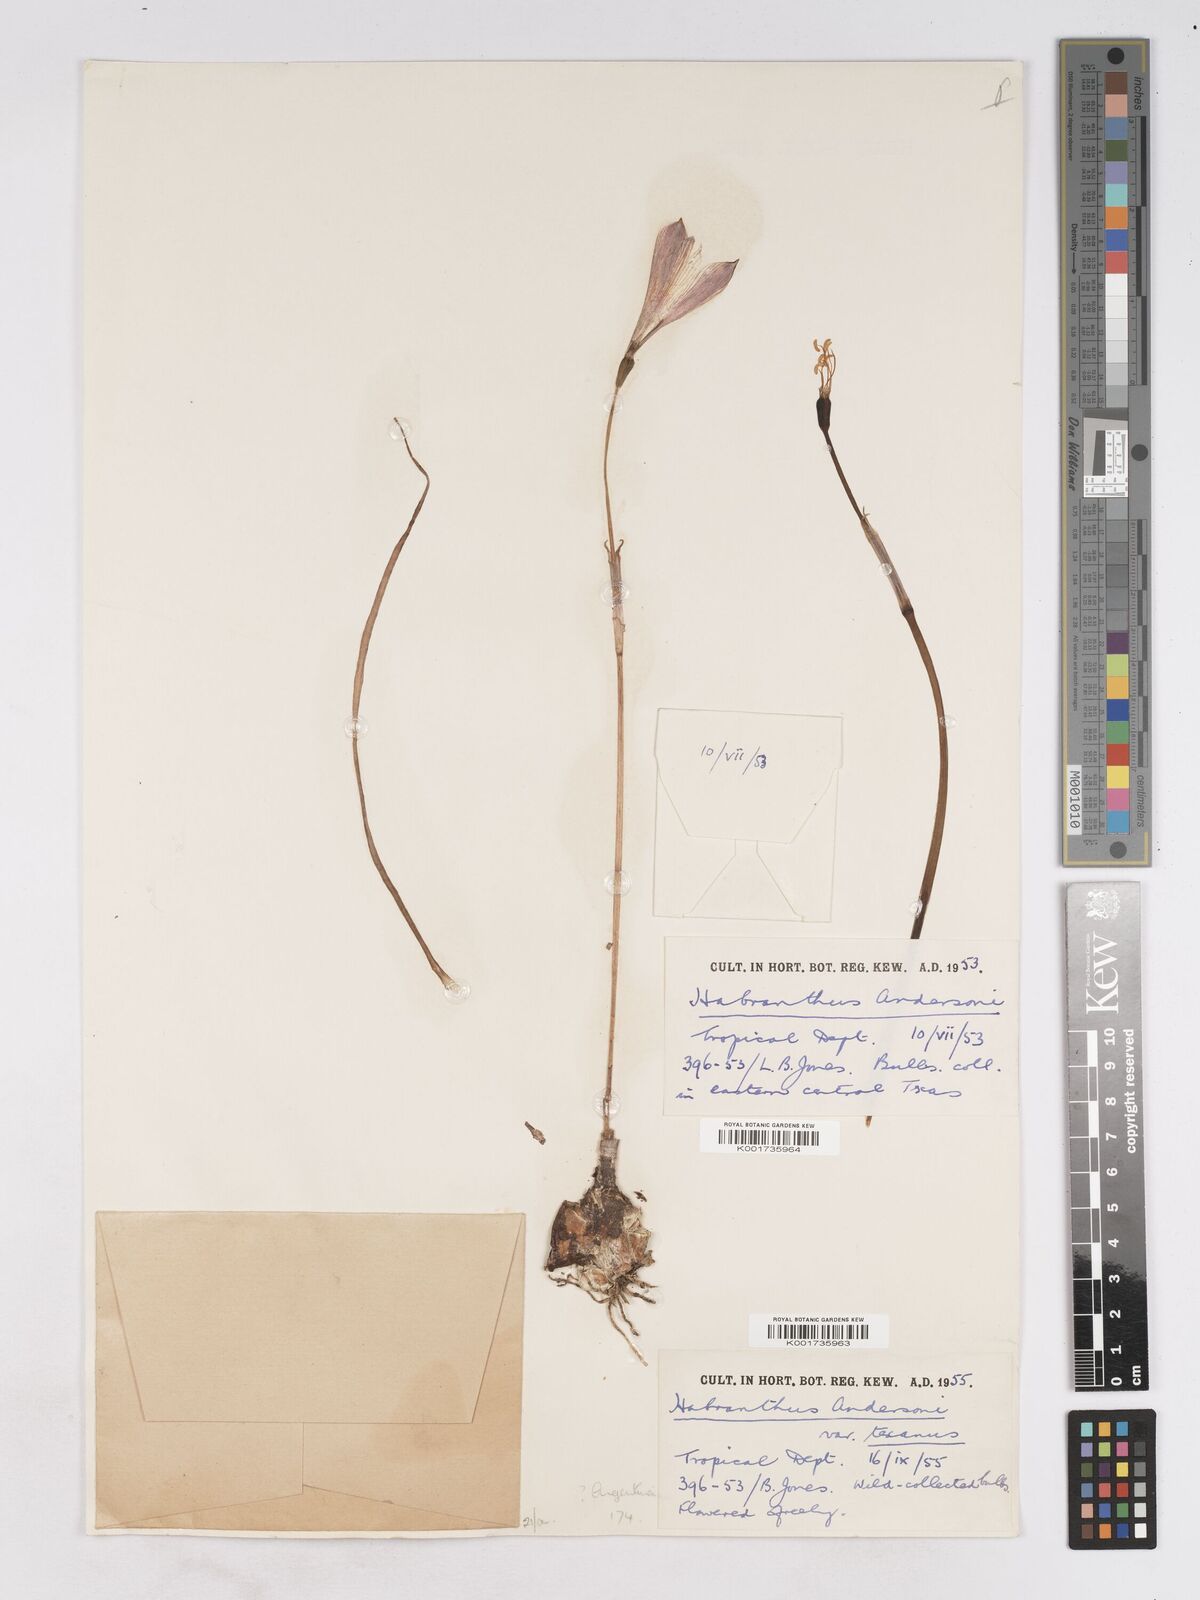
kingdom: Plantae
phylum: Tracheophyta
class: Liliopsida
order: Asparagales
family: Amaryllidaceae
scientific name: Amaryllidaceae
